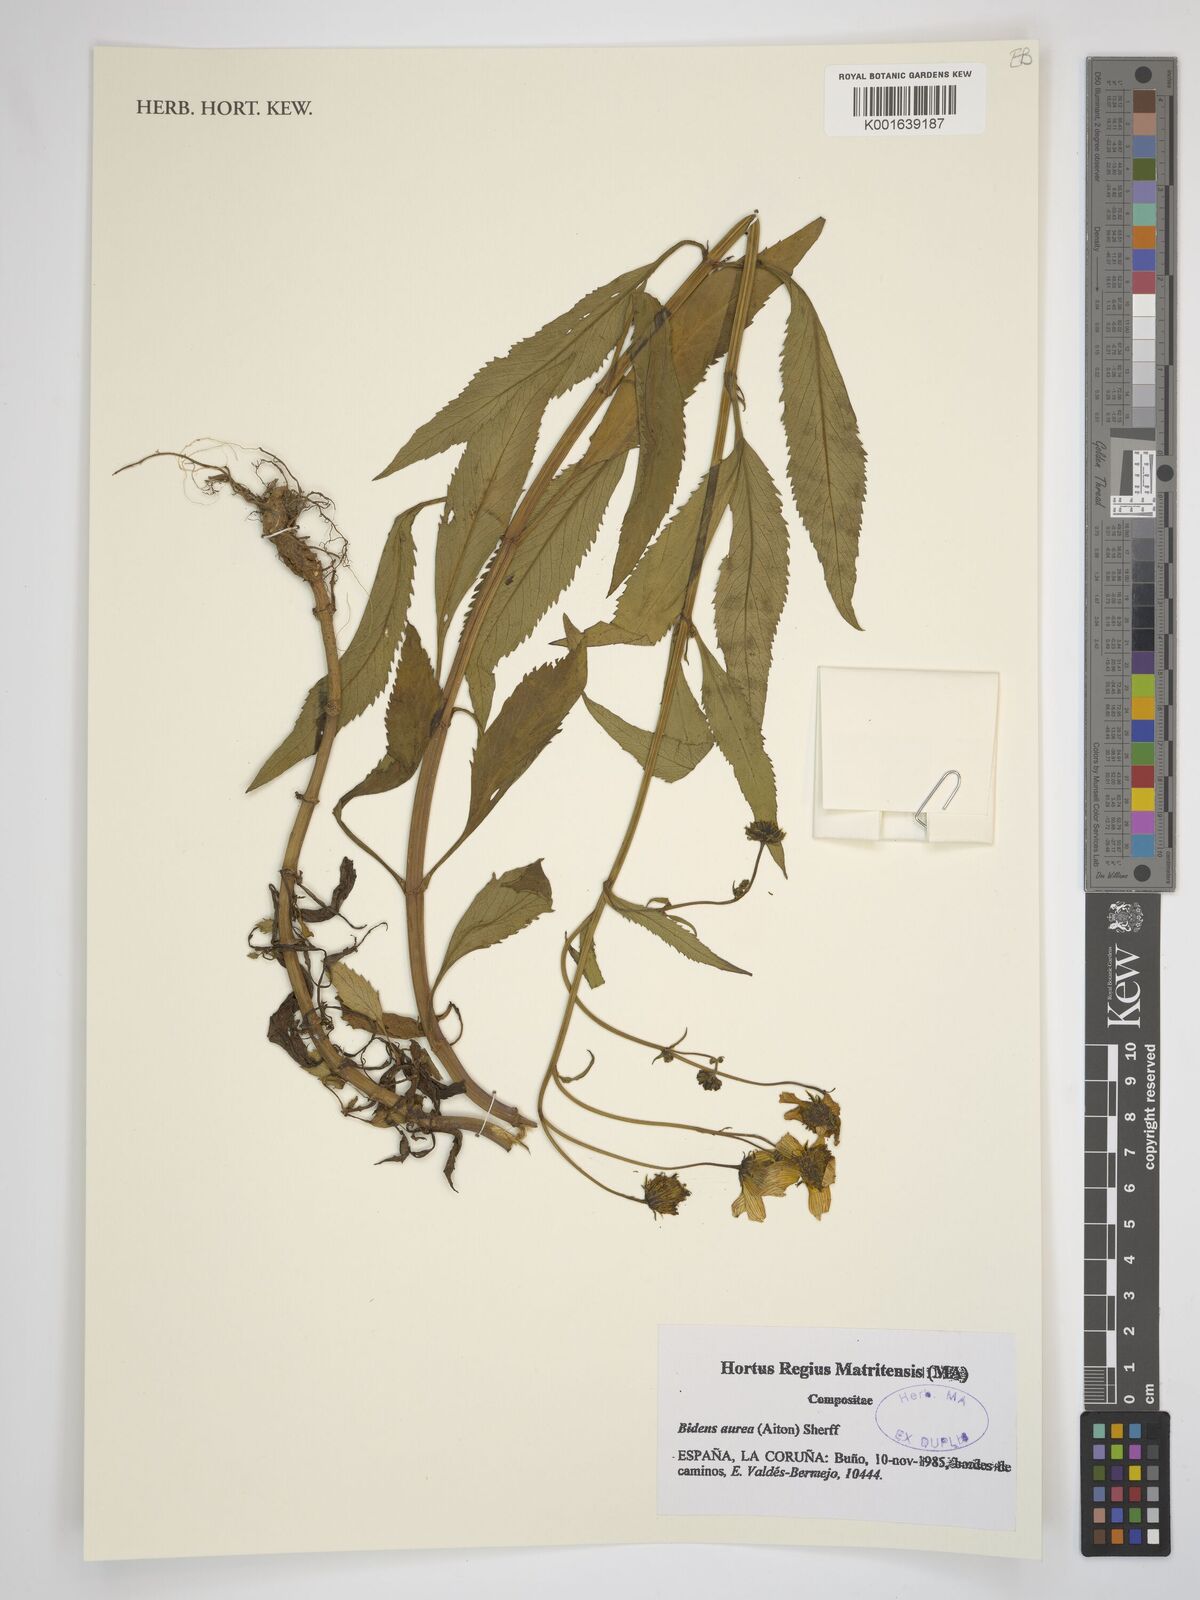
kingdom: Plantae
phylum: Tracheophyta
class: Magnoliopsida
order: Asterales
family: Asteraceae
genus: Bidens
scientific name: Bidens aurea
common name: Arizona beggar-ticks
